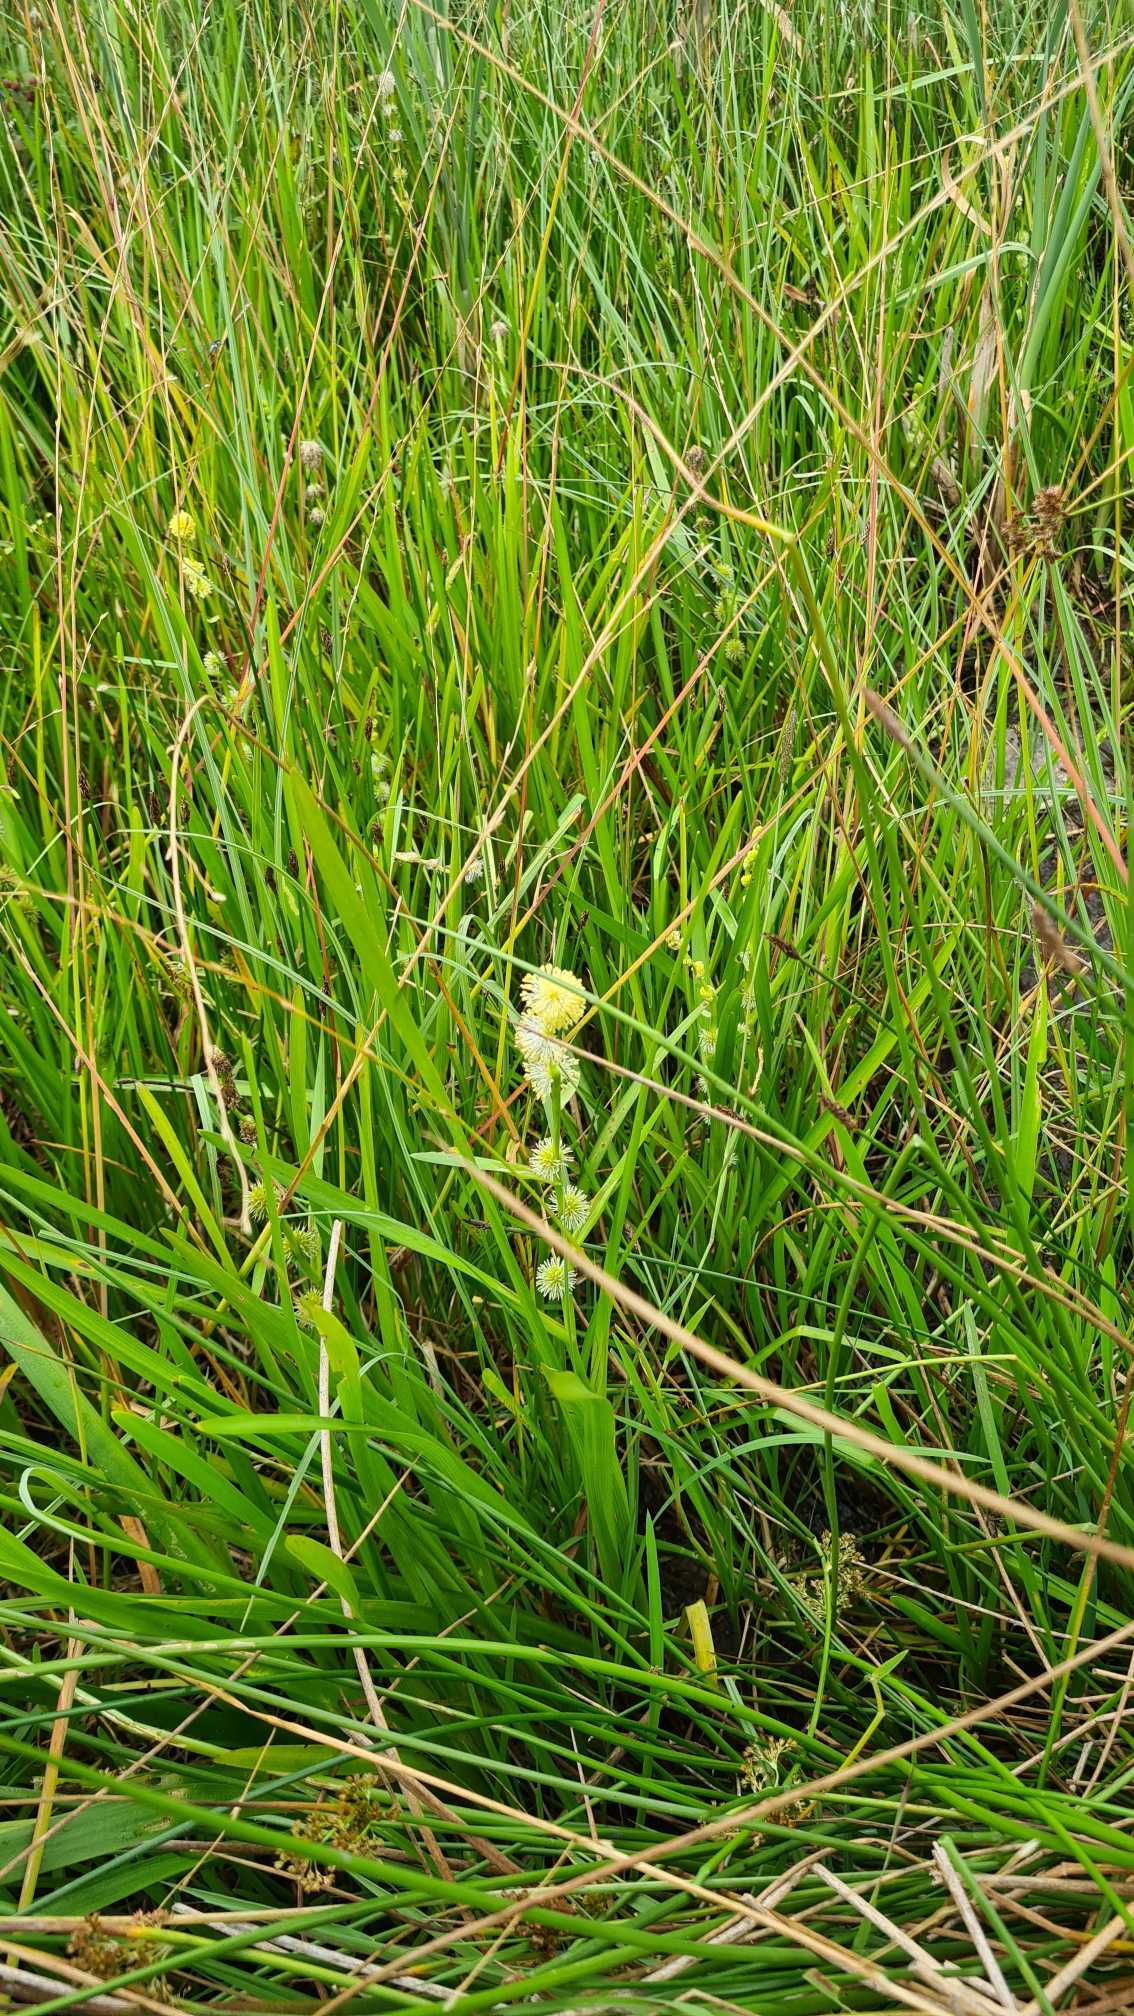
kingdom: Plantae
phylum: Tracheophyta
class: Liliopsida
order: Poales
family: Typhaceae
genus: Sparganium
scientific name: Sparganium emersum
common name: Enkelt pindsvineknop
